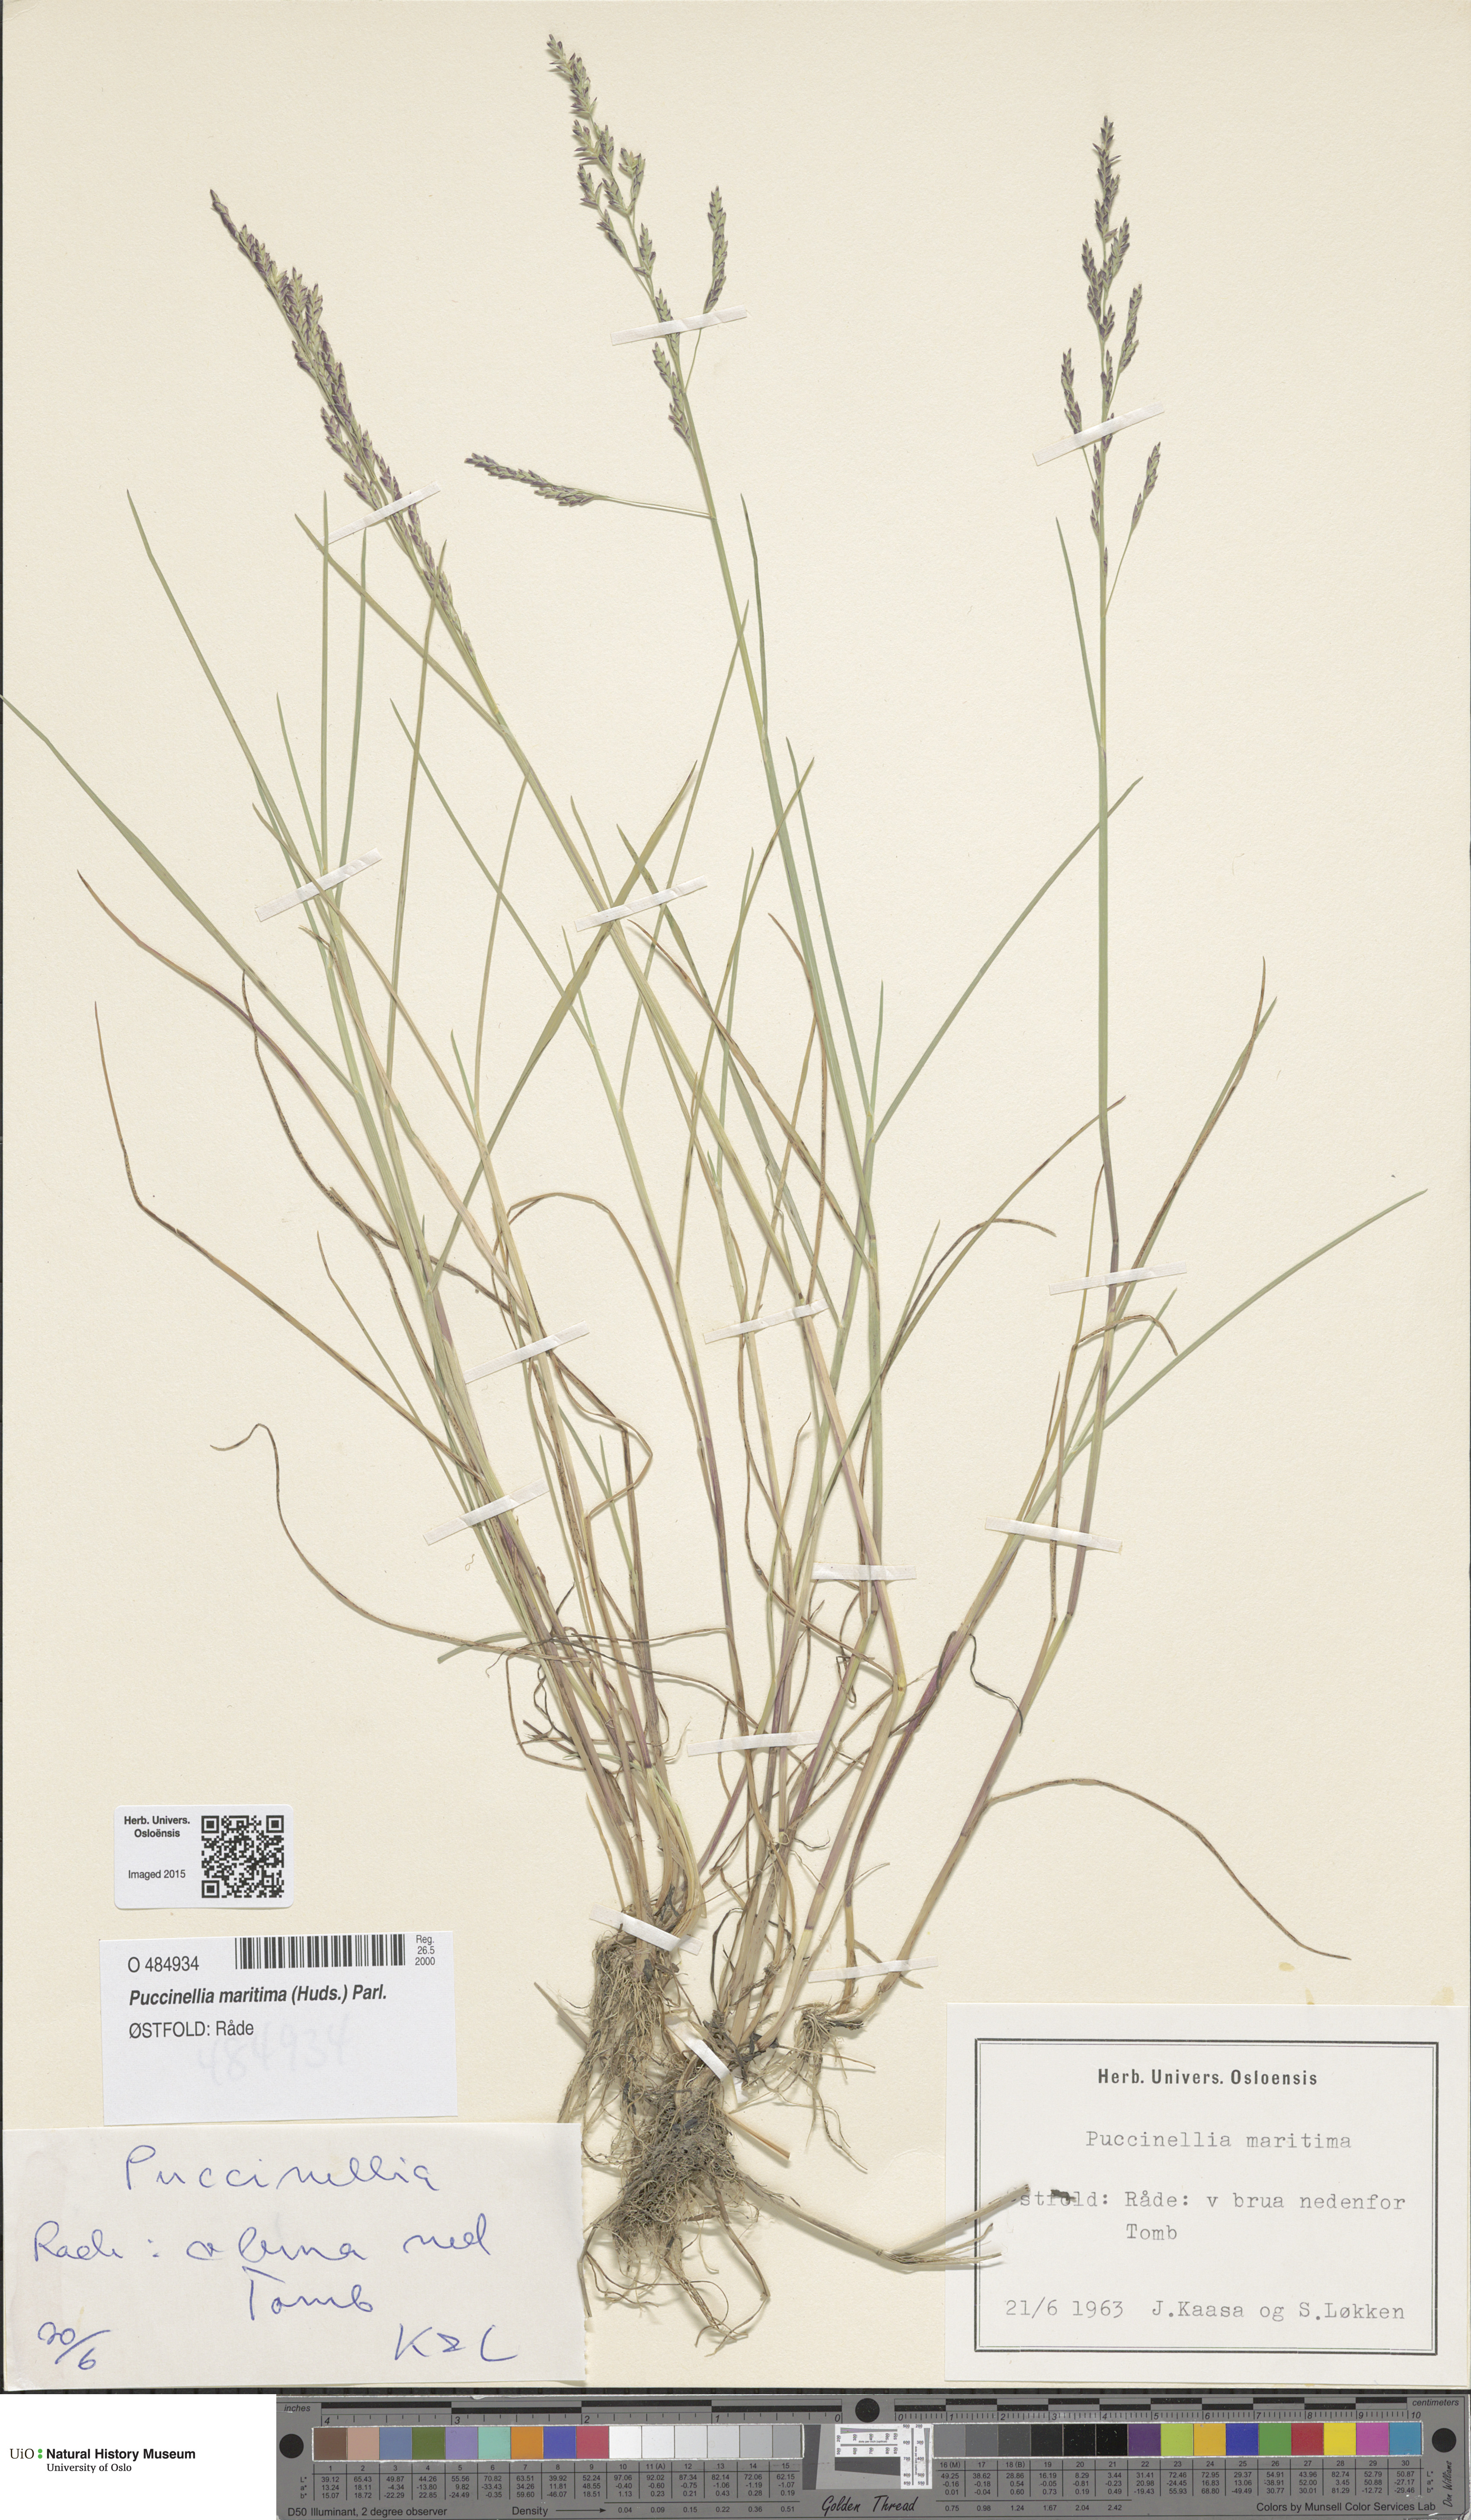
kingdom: Plantae
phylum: Tracheophyta
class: Liliopsida
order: Poales
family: Poaceae
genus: Puccinellia
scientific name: Puccinellia maritima
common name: Common saltmarsh grass
